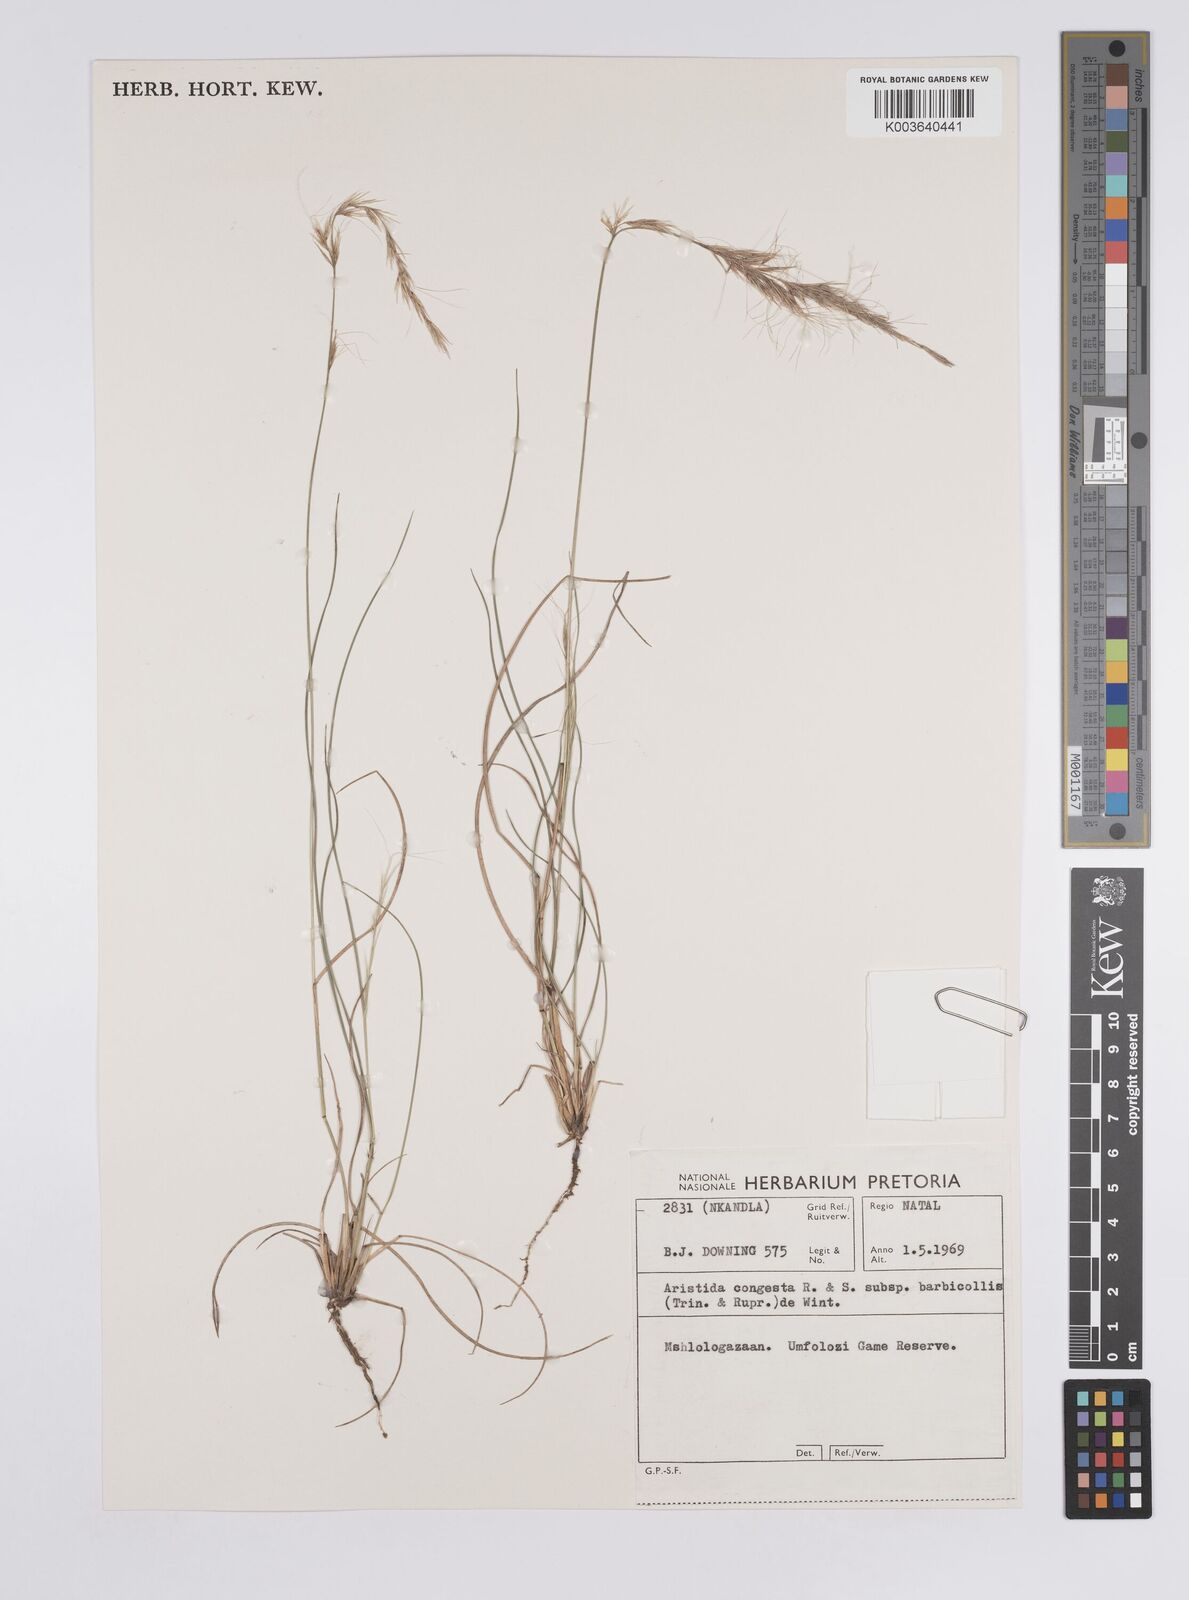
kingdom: Plantae
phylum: Tracheophyta
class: Liliopsida
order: Poales
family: Poaceae
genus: Aristida
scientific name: Aristida barbicollis
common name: Spreading prickle grass
